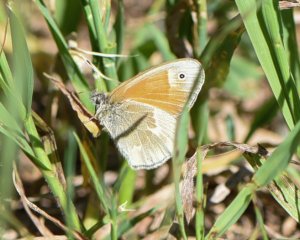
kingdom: Animalia
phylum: Arthropoda
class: Insecta
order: Lepidoptera
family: Nymphalidae
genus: Coenonympha
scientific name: Coenonympha tullia
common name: Large Heath
